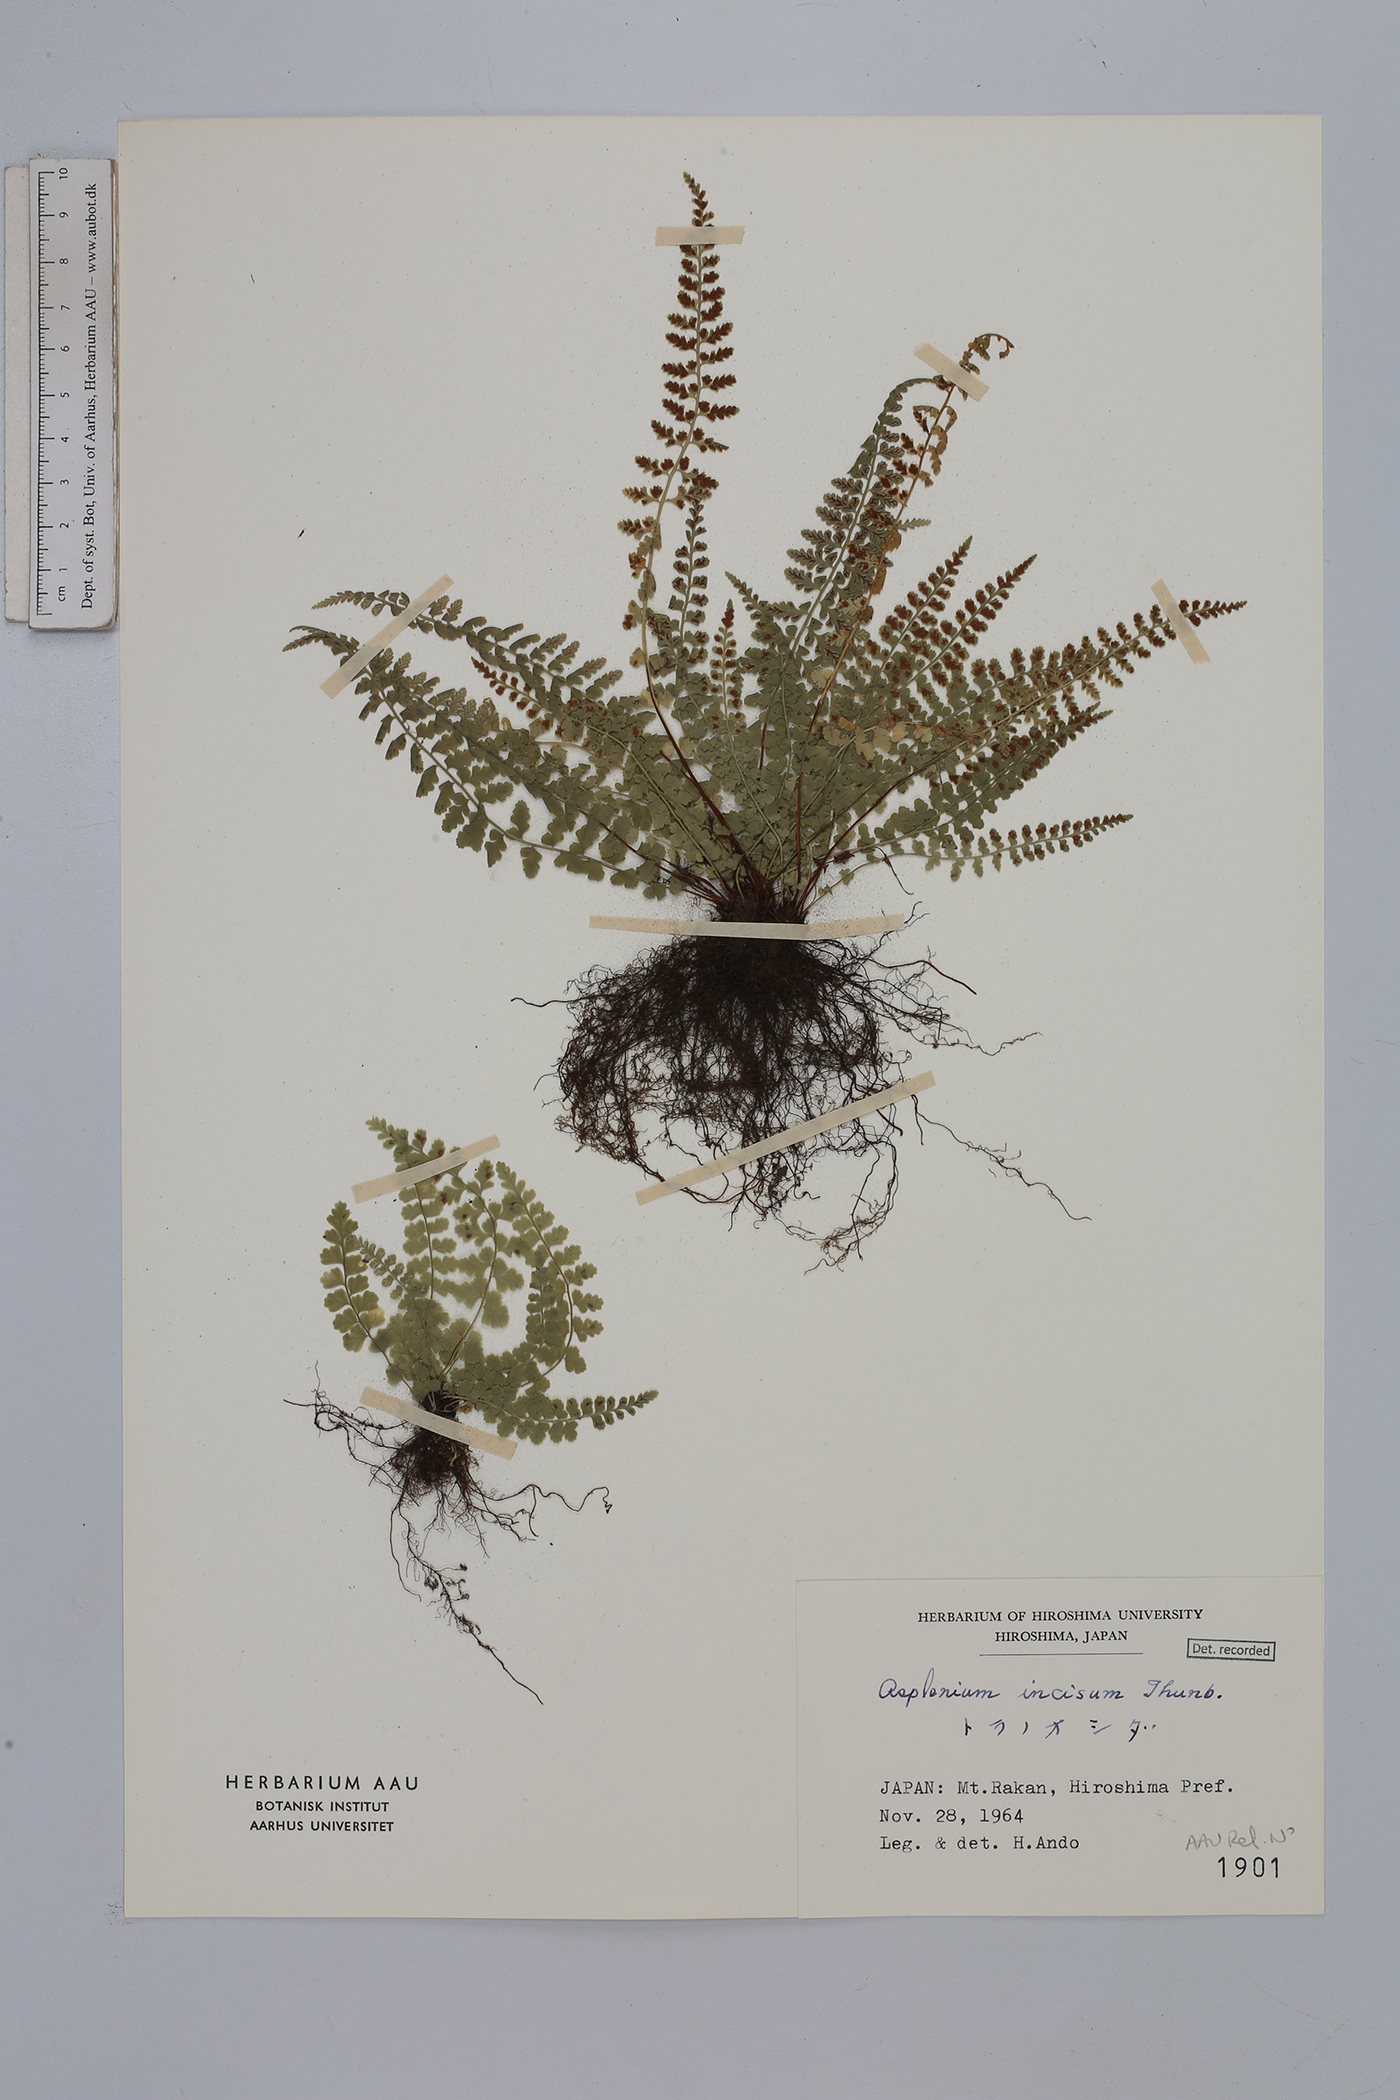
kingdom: Plantae
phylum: Tracheophyta
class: Polypodiopsida
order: Polypodiales
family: Aspleniaceae
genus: Asplenium
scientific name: Asplenium incisum
